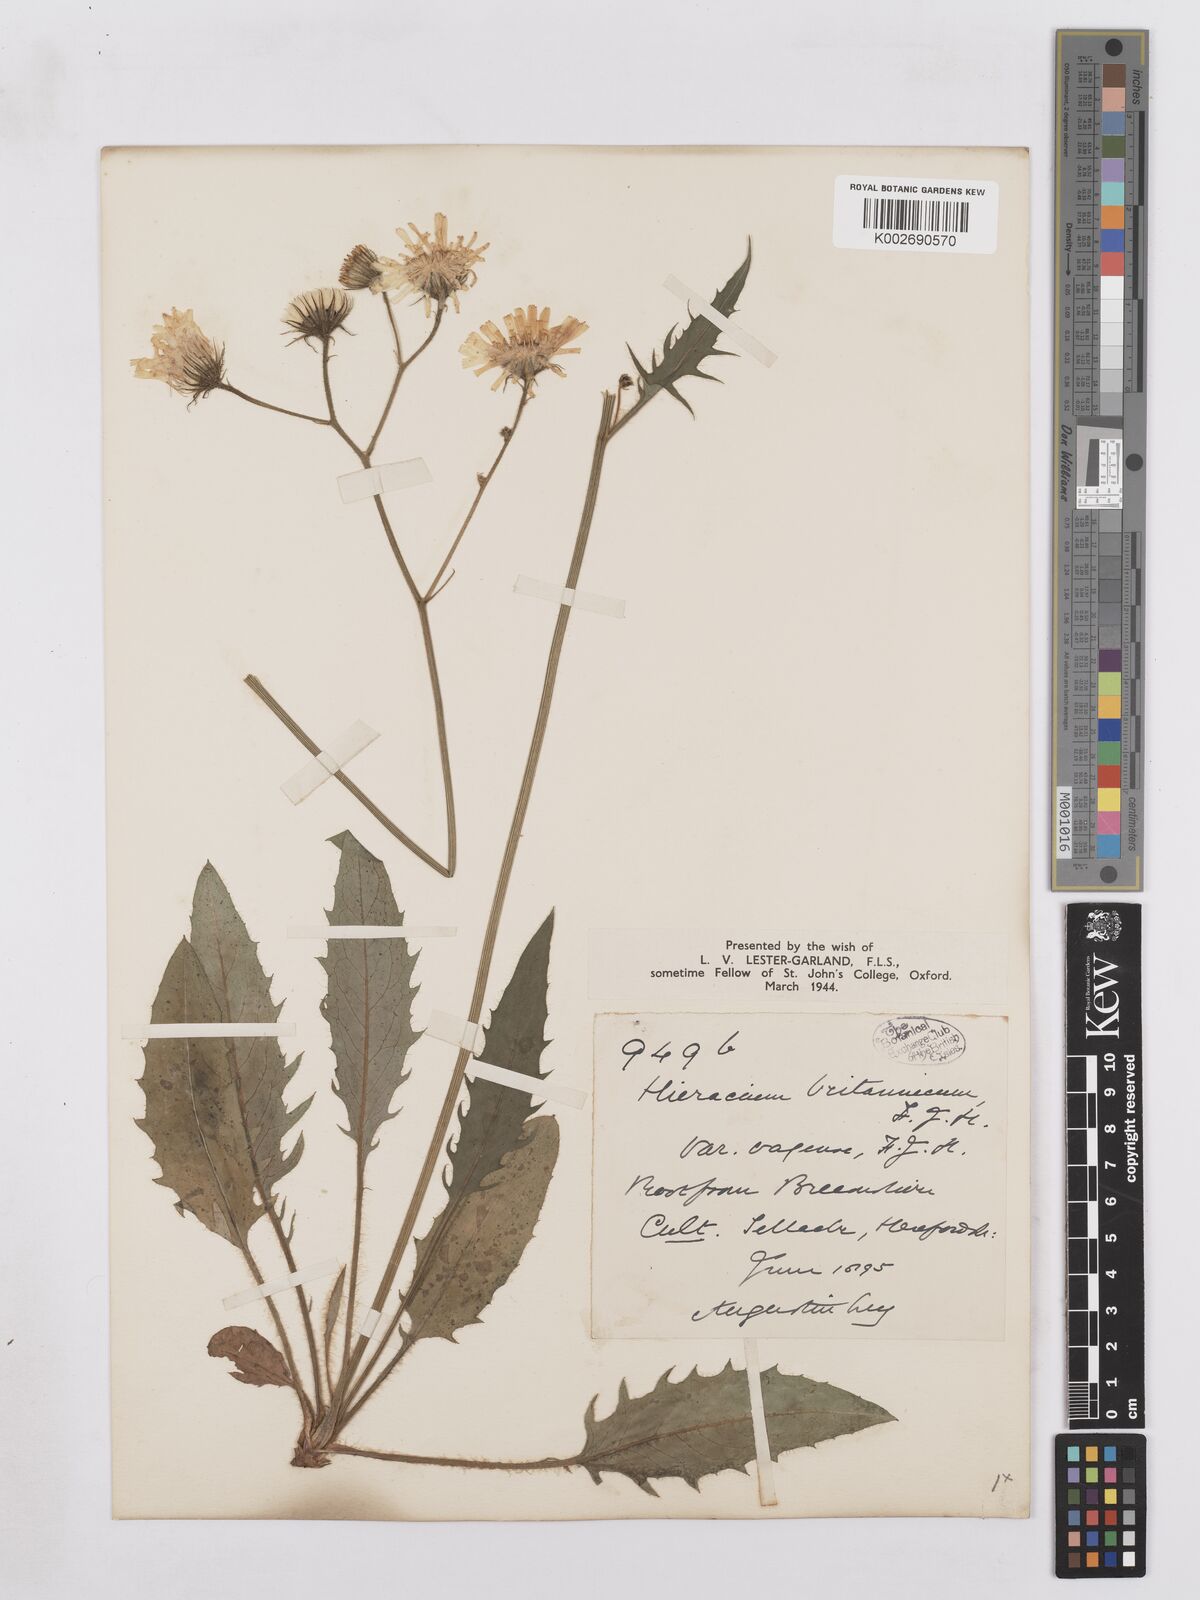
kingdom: Plantae
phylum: Tracheophyta
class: Magnoliopsida
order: Asterales
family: Asteraceae
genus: Hieracium
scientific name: Hieracium britannicum
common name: British hawkweed
